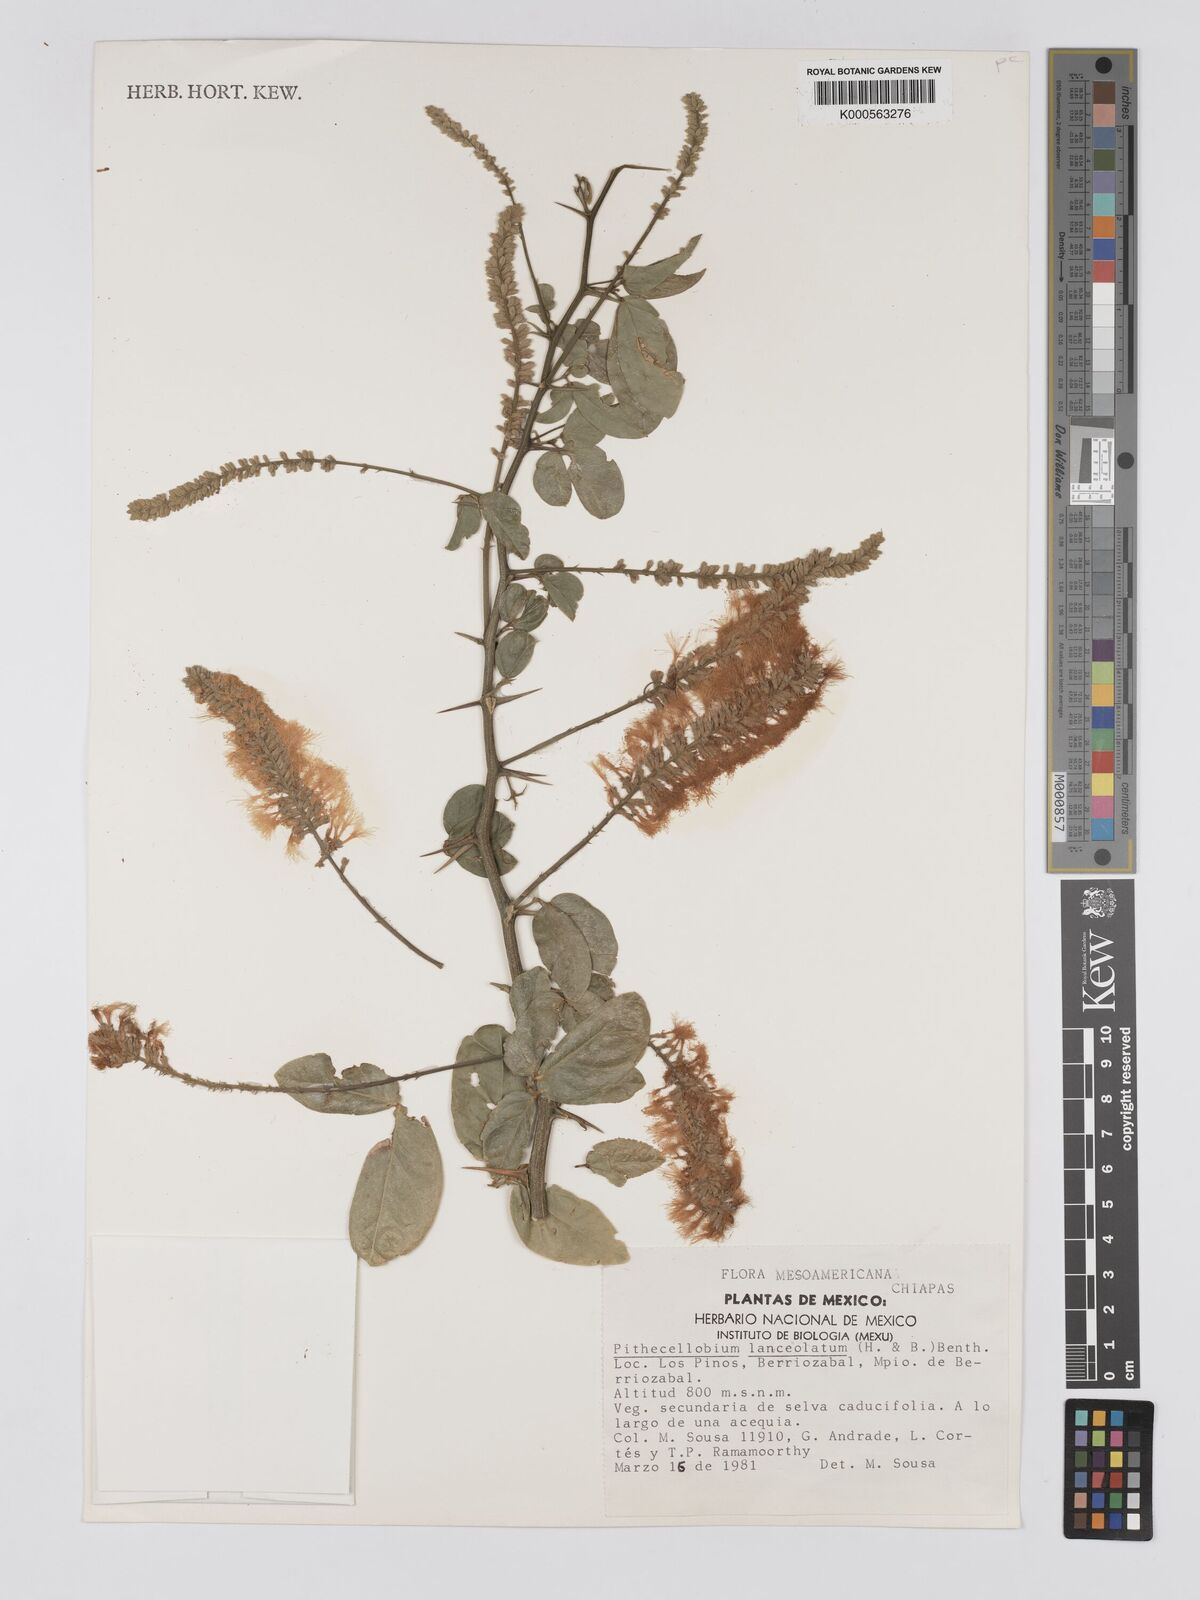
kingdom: Plantae
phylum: Tracheophyta
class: Magnoliopsida
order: Fabales
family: Fabaceae
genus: Pithecellobium
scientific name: Pithecellobium lanceolatum
